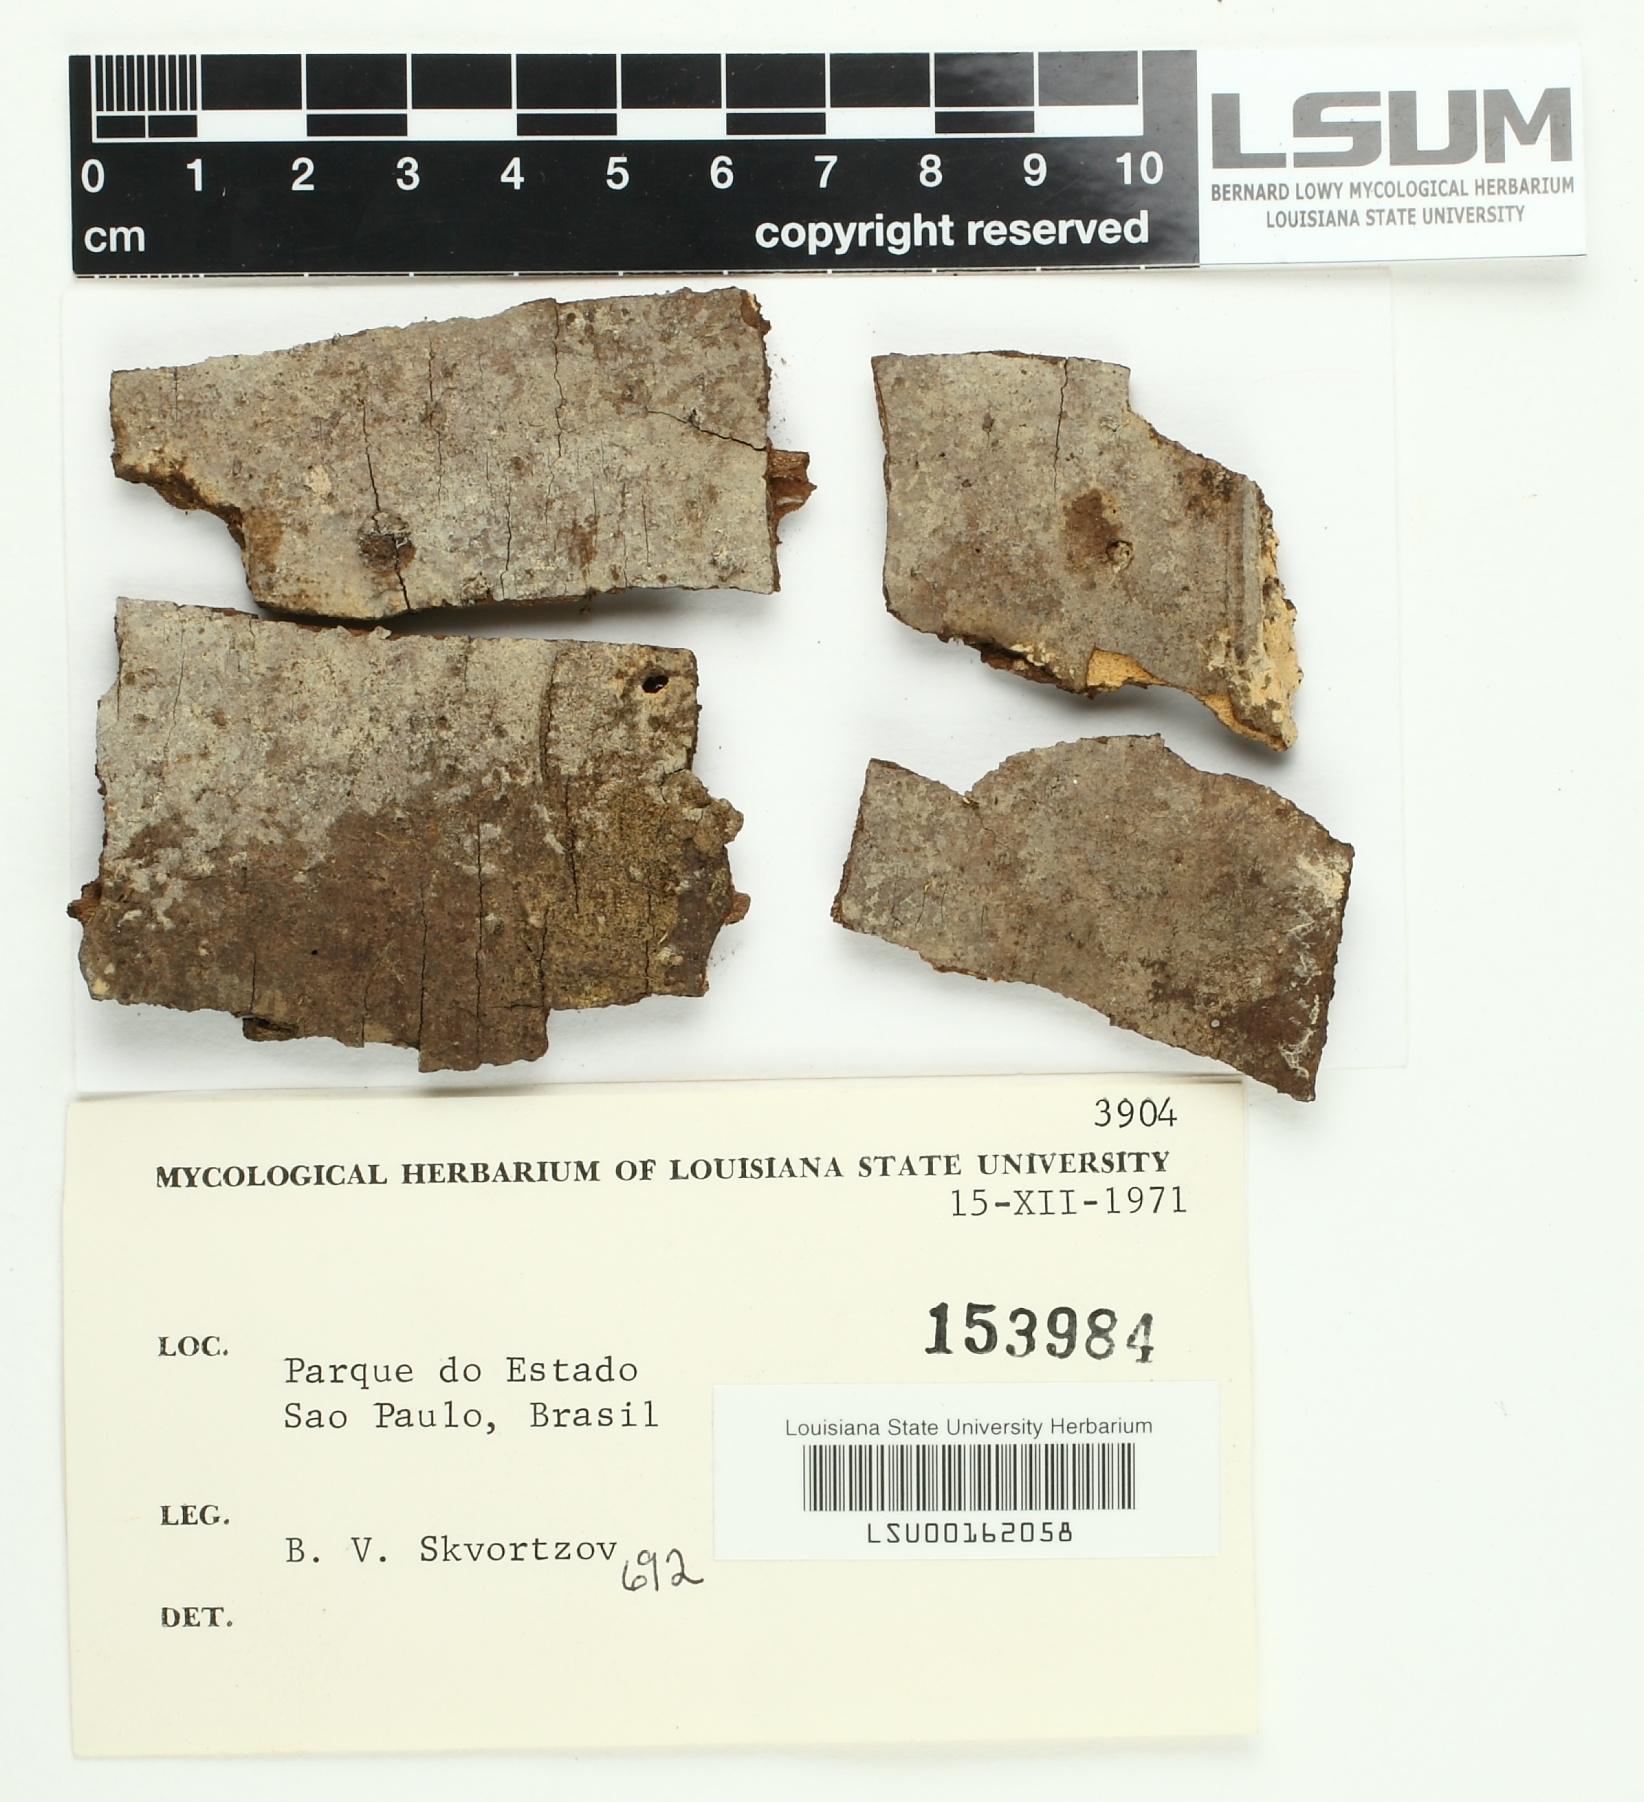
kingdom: Fungi
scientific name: Fungi
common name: Fungi
